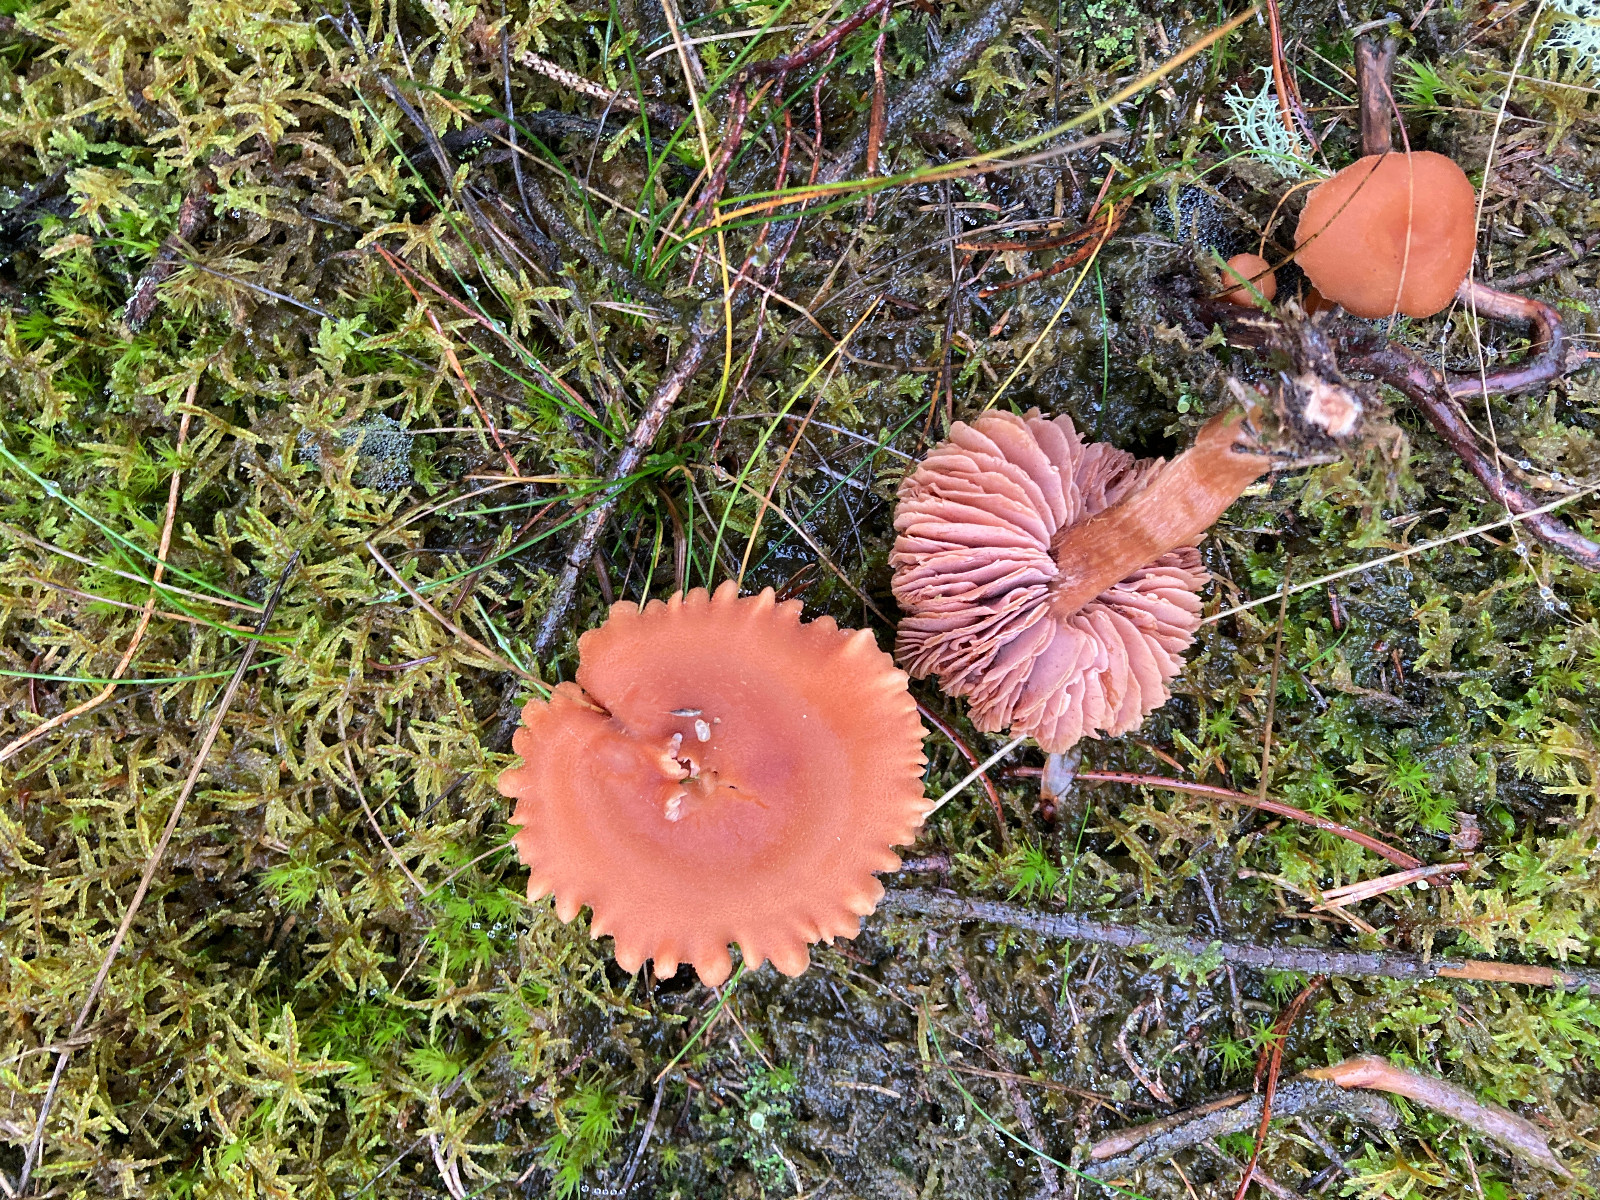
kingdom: Fungi
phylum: Basidiomycota
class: Agaricomycetes
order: Agaricales
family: Hydnangiaceae
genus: Laccaria
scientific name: Laccaria laccata
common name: rød ametysthat
